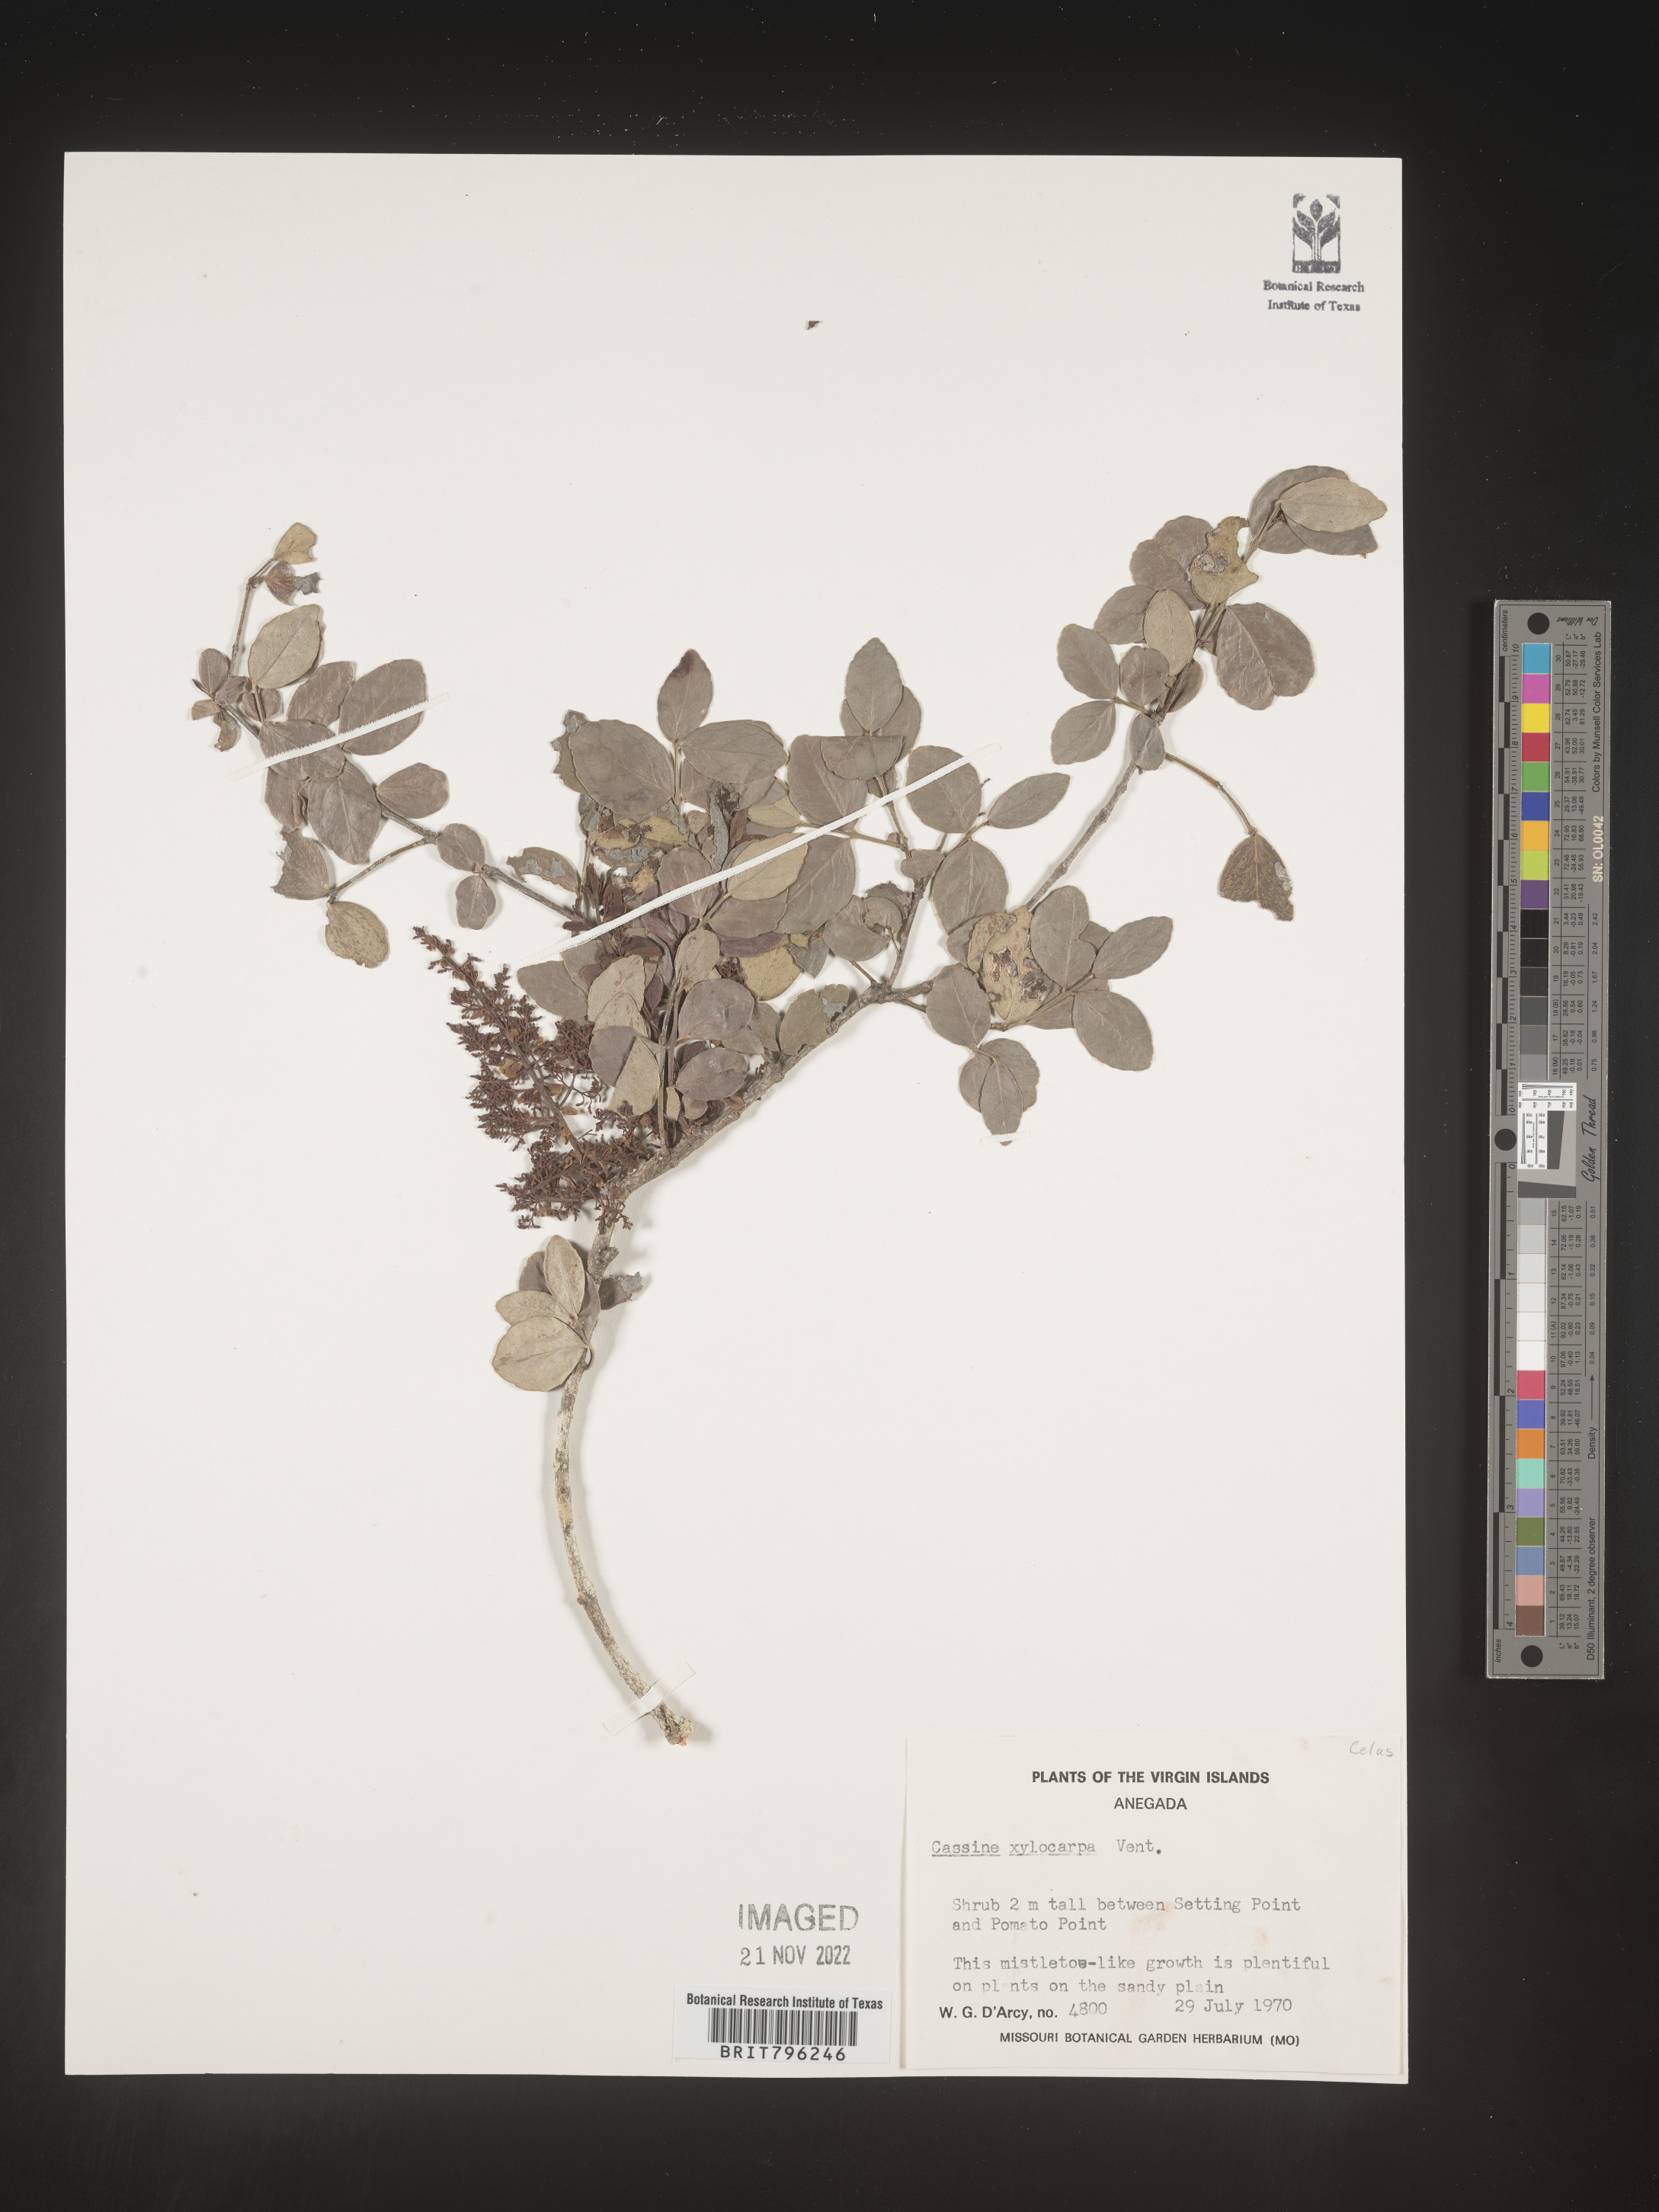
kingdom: Plantae
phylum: Tracheophyta
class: Magnoliopsida
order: Celastrales
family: Celastraceae
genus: Elaeodendron
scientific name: Elaeodendron
